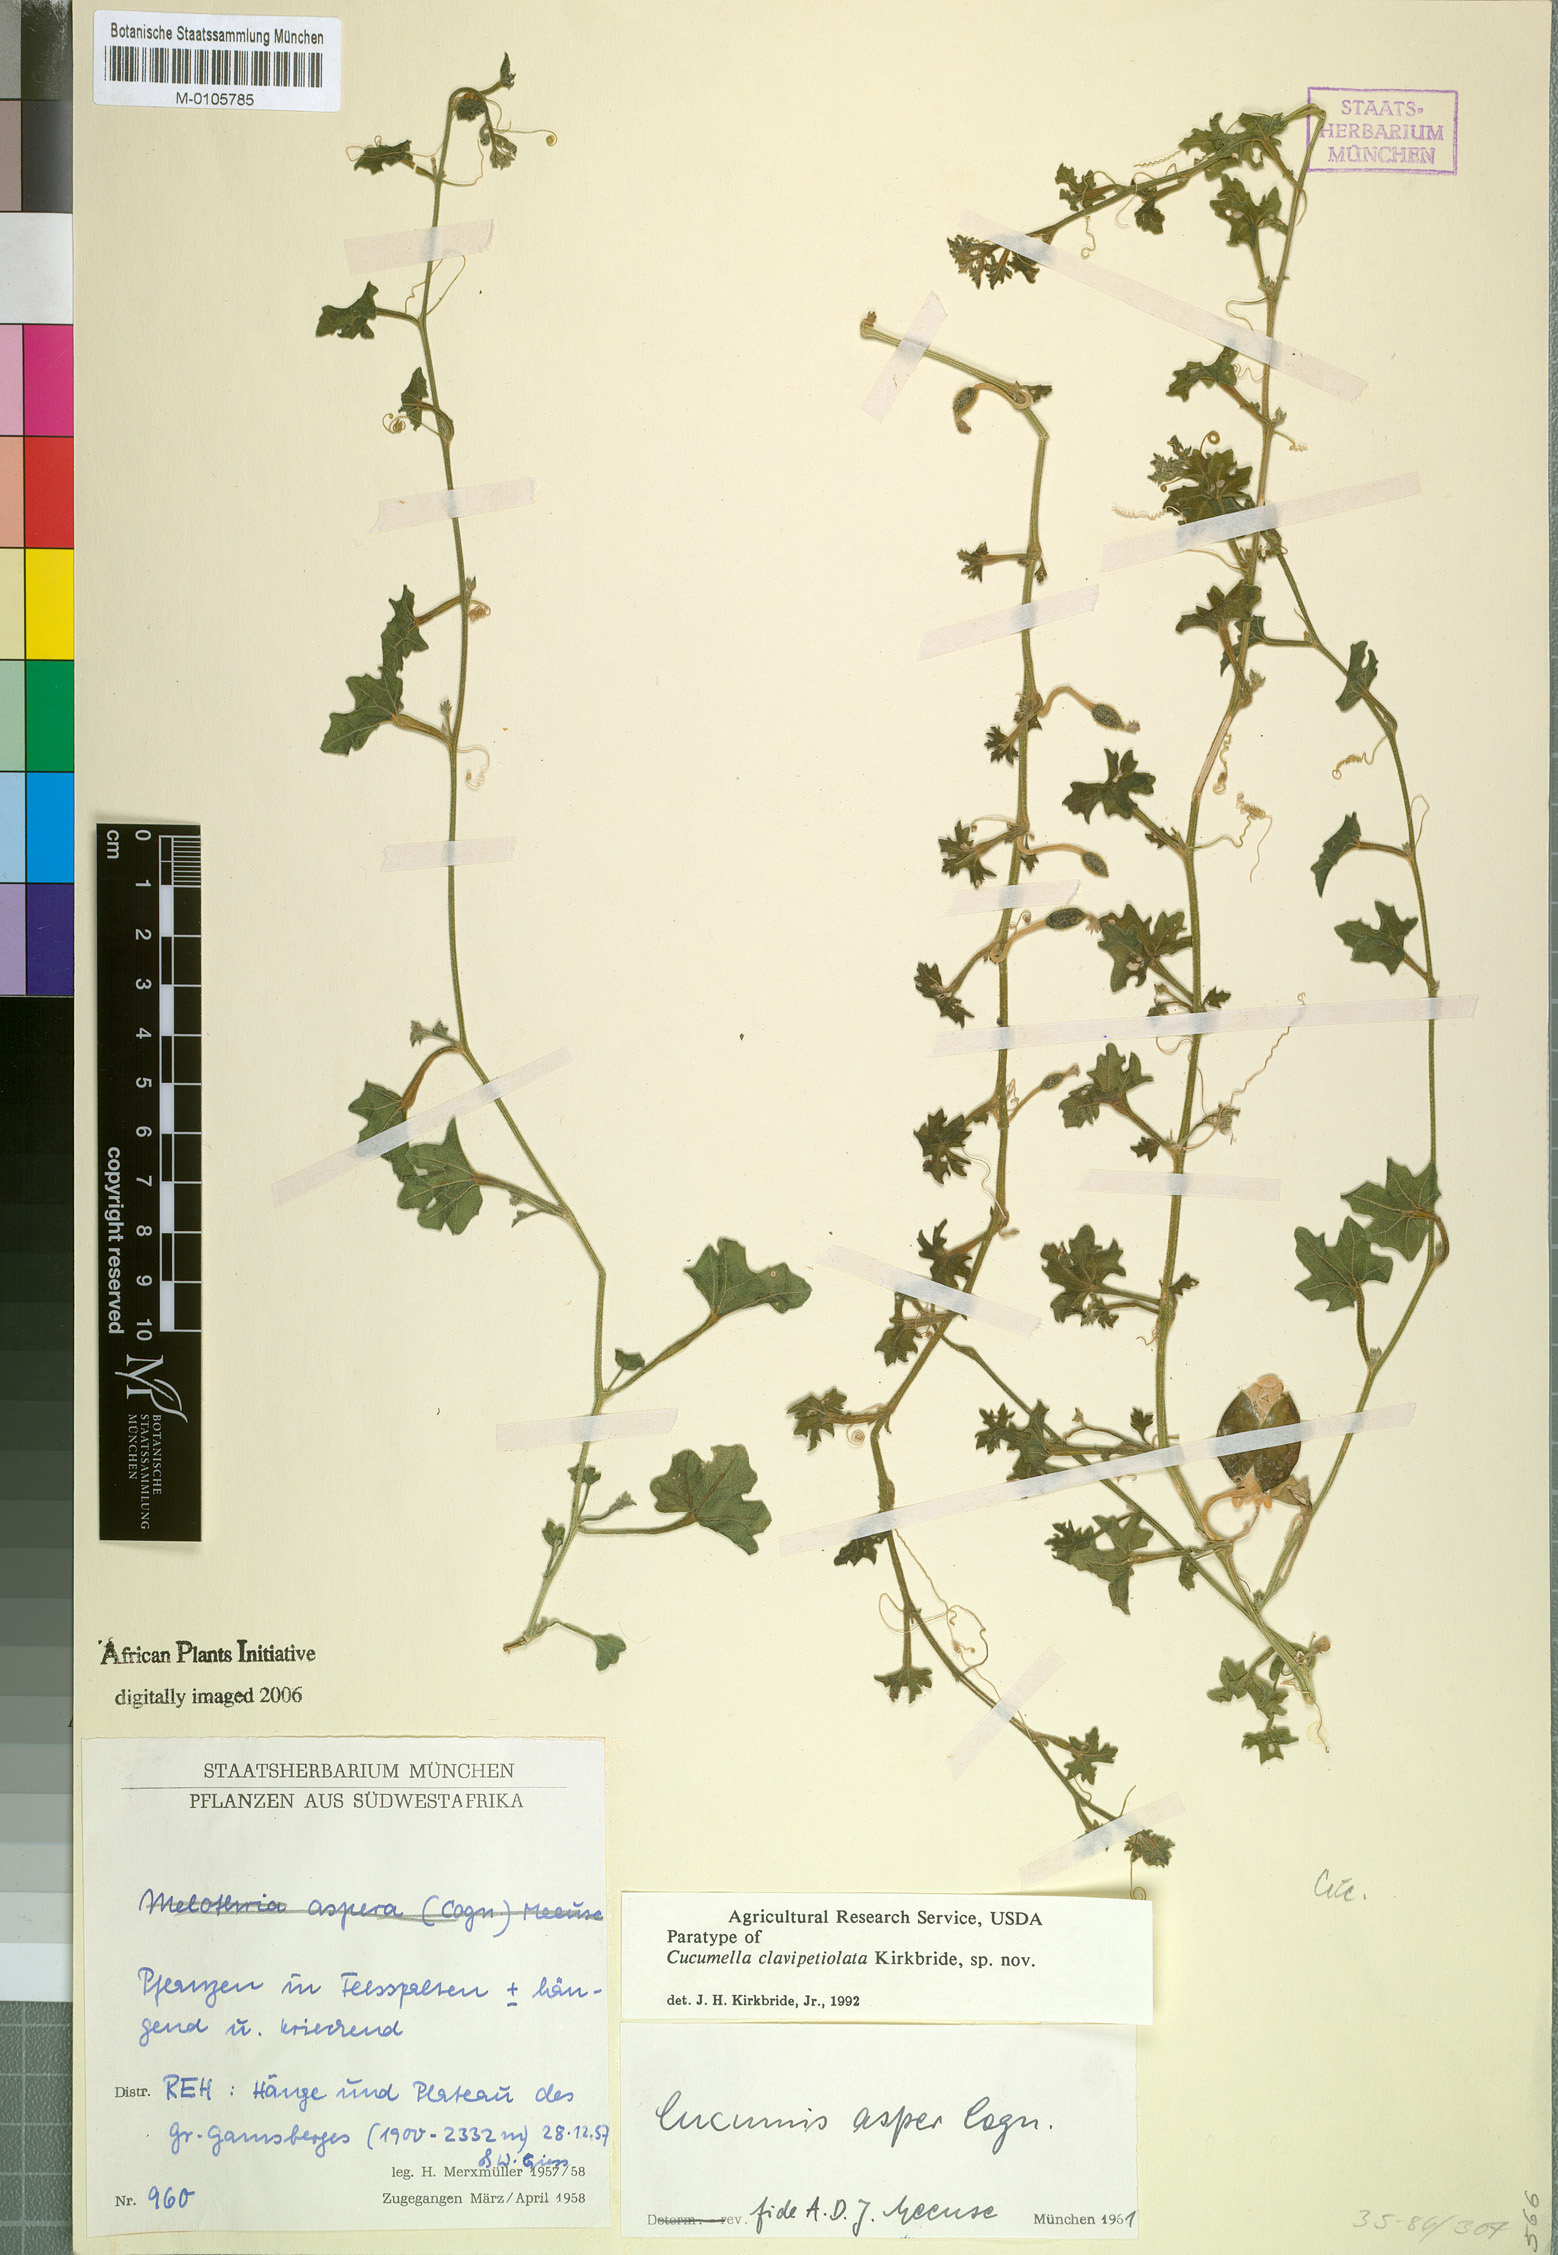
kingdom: Plantae
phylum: Tracheophyta
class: Magnoliopsida
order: Cucurbitales
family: Cucurbitaceae
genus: Cucumis
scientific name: Cucumis aspera
